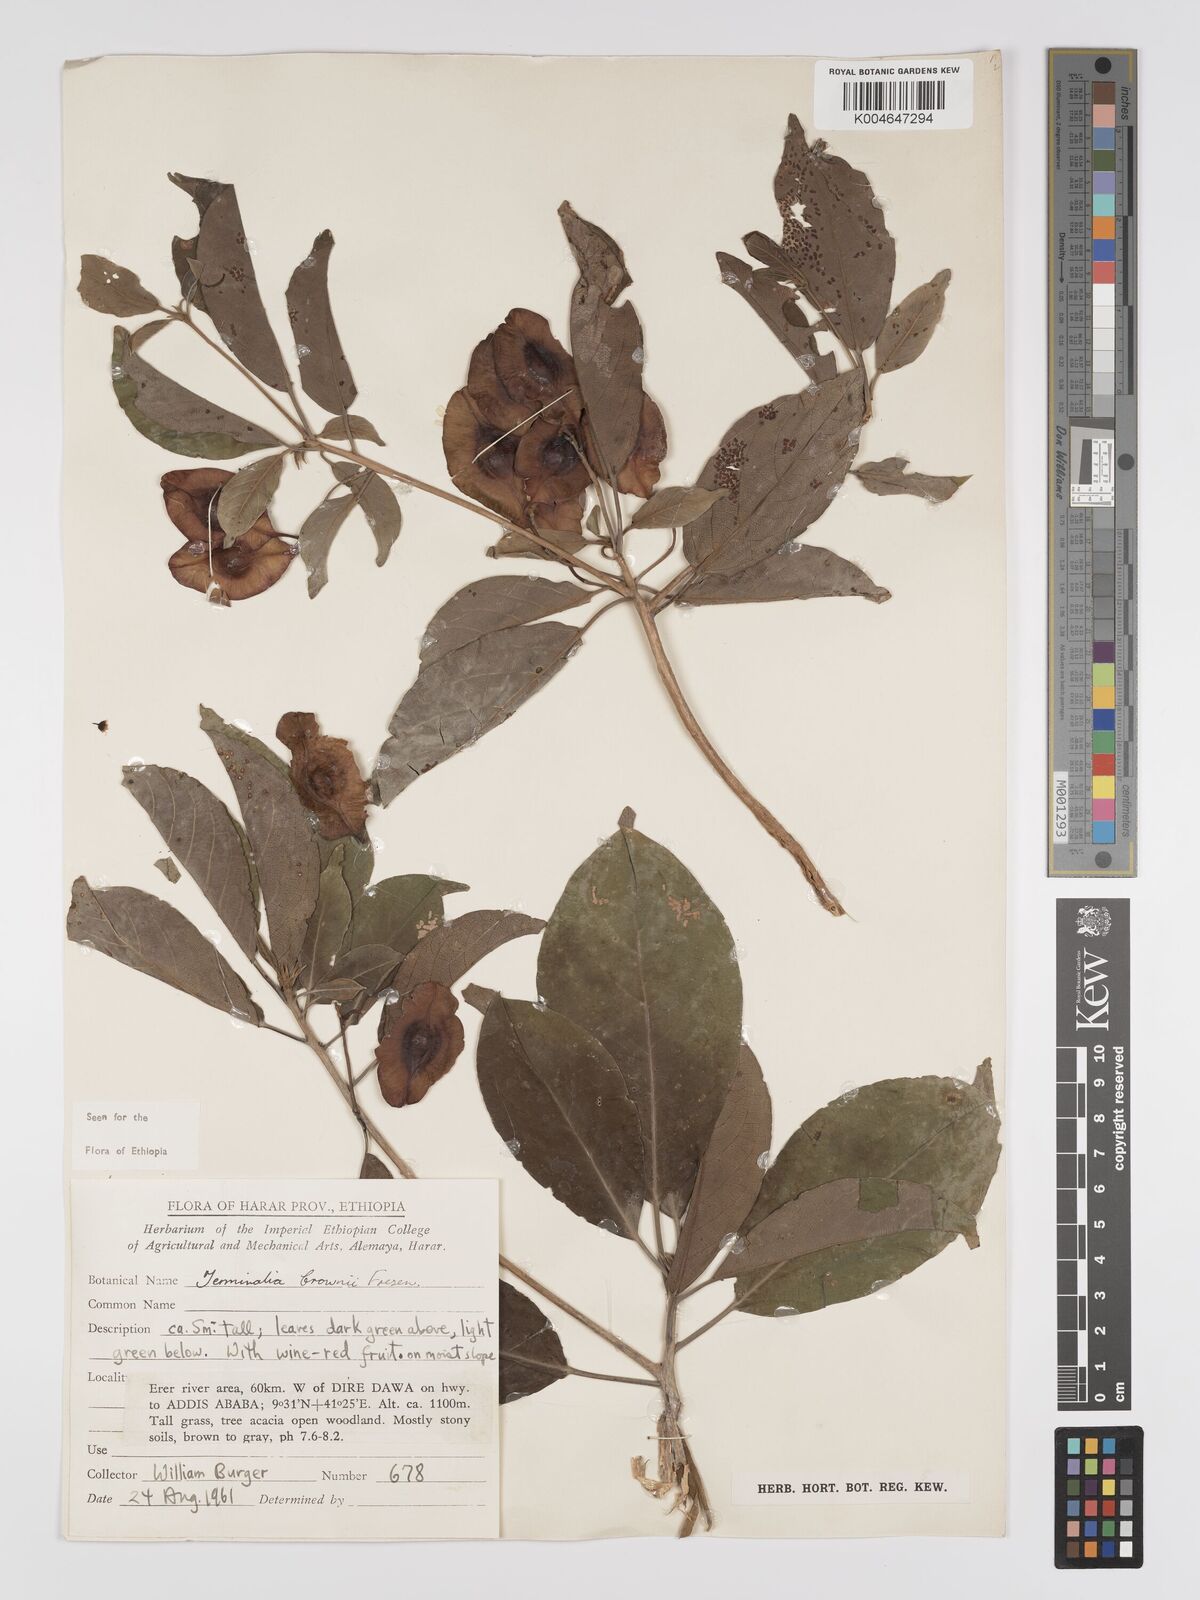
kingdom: Plantae
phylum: Tracheophyta
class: Magnoliopsida
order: Myrtales
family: Combretaceae
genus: Terminalia
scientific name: Terminalia brownii
